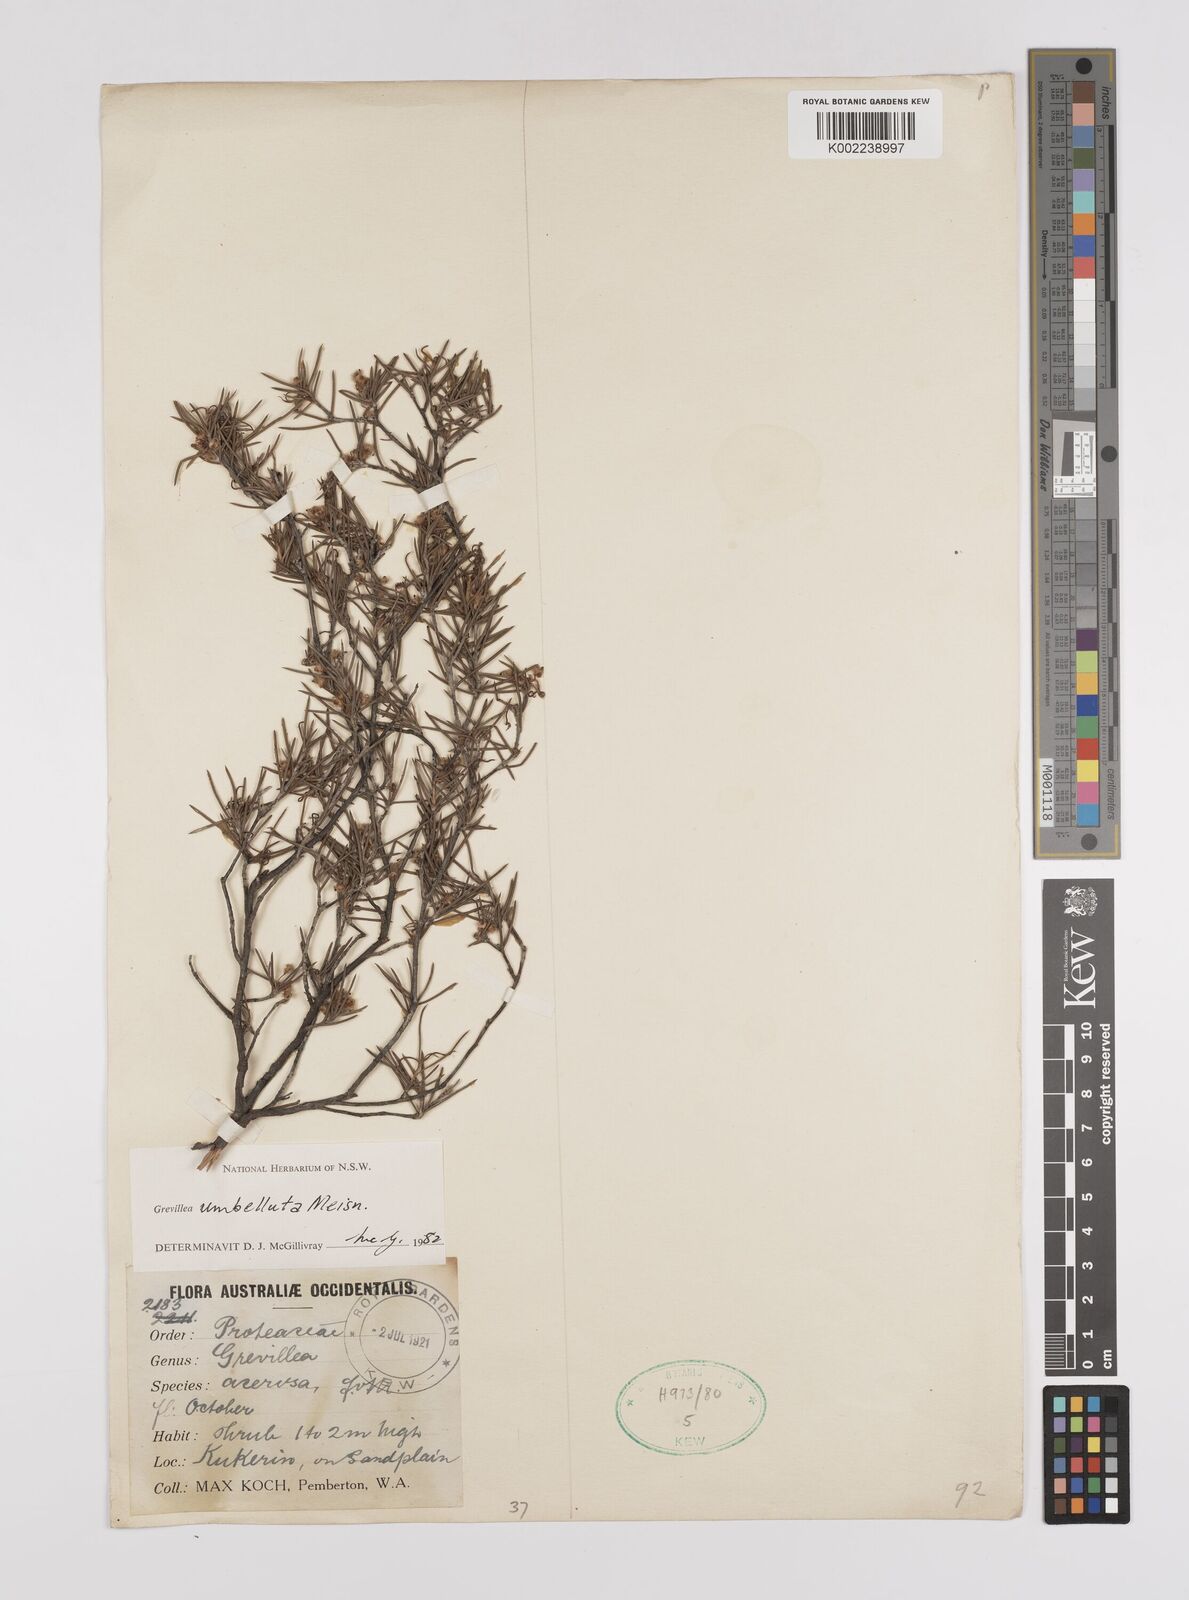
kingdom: Plantae
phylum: Tracheophyta
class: Magnoliopsida
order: Proteales
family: Proteaceae
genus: Grevillea
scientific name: Grevillea umbellulata
